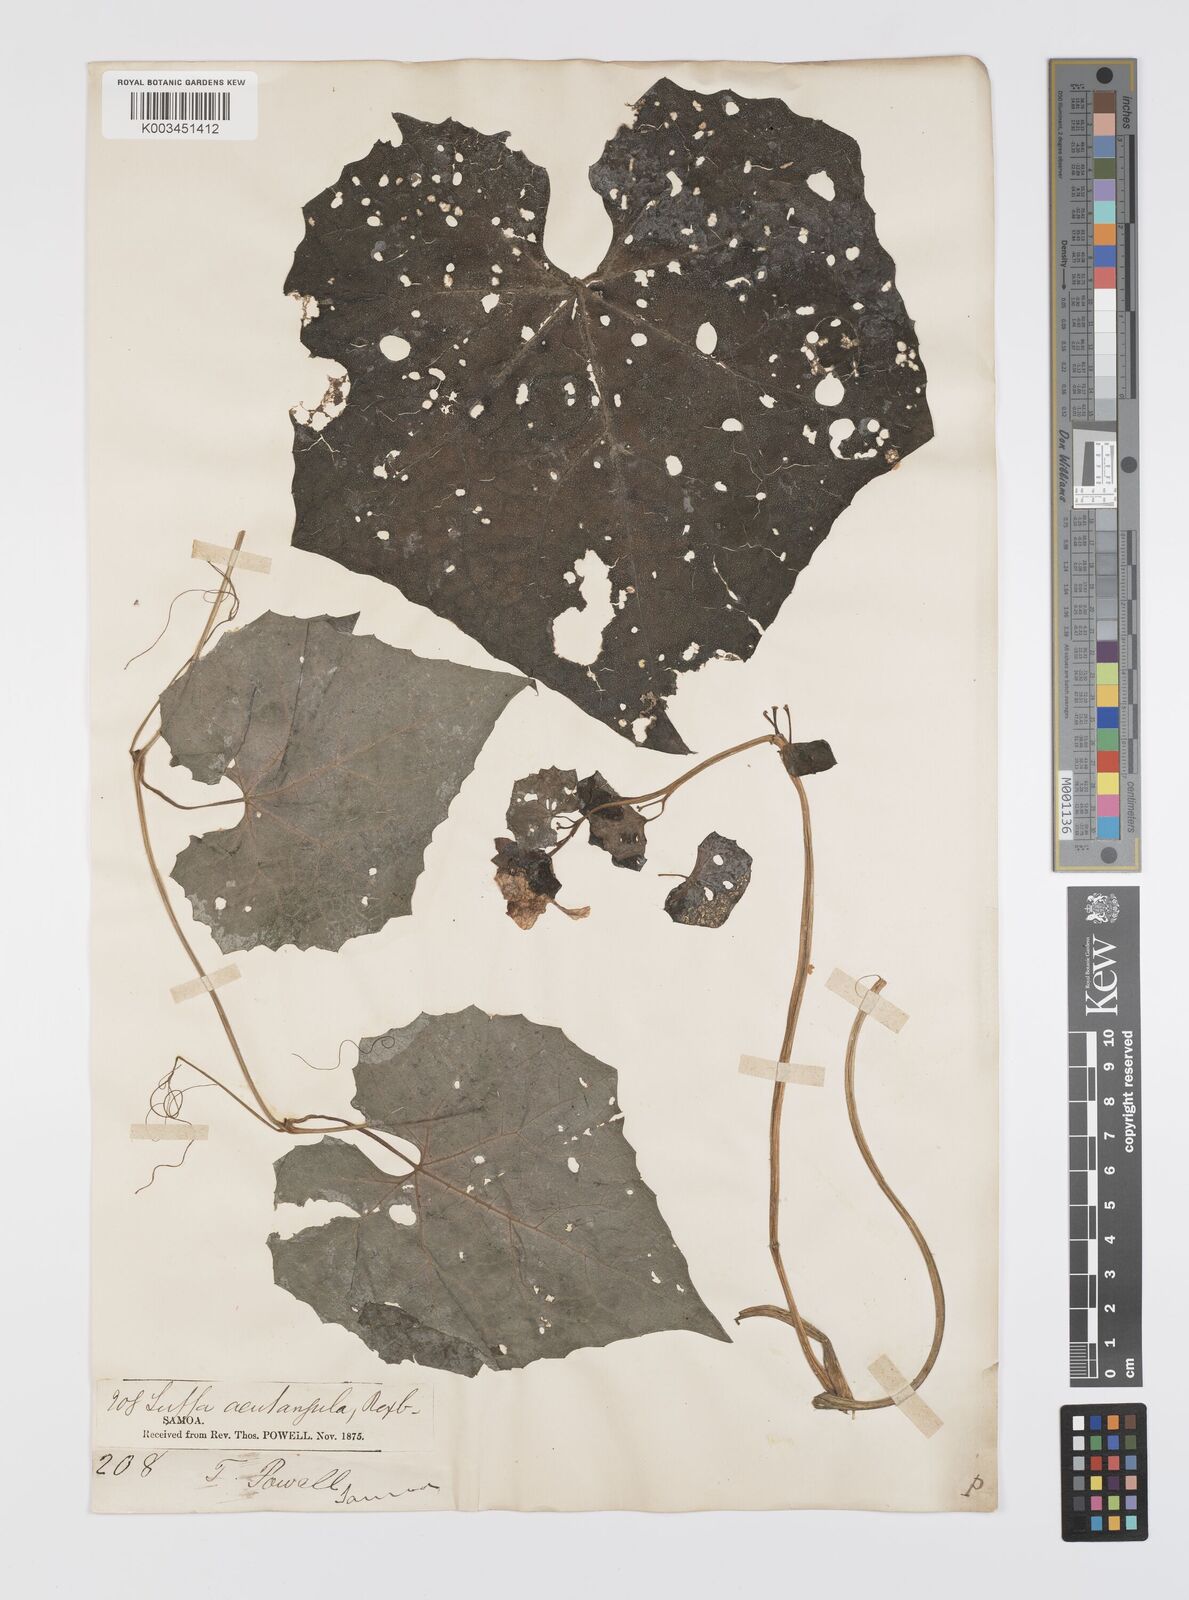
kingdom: Plantae
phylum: Tracheophyta
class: Magnoliopsida
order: Cucurbitales
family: Cucurbitaceae
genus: Luffa
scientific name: Luffa acutangula
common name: Sinkwa towelsponge
